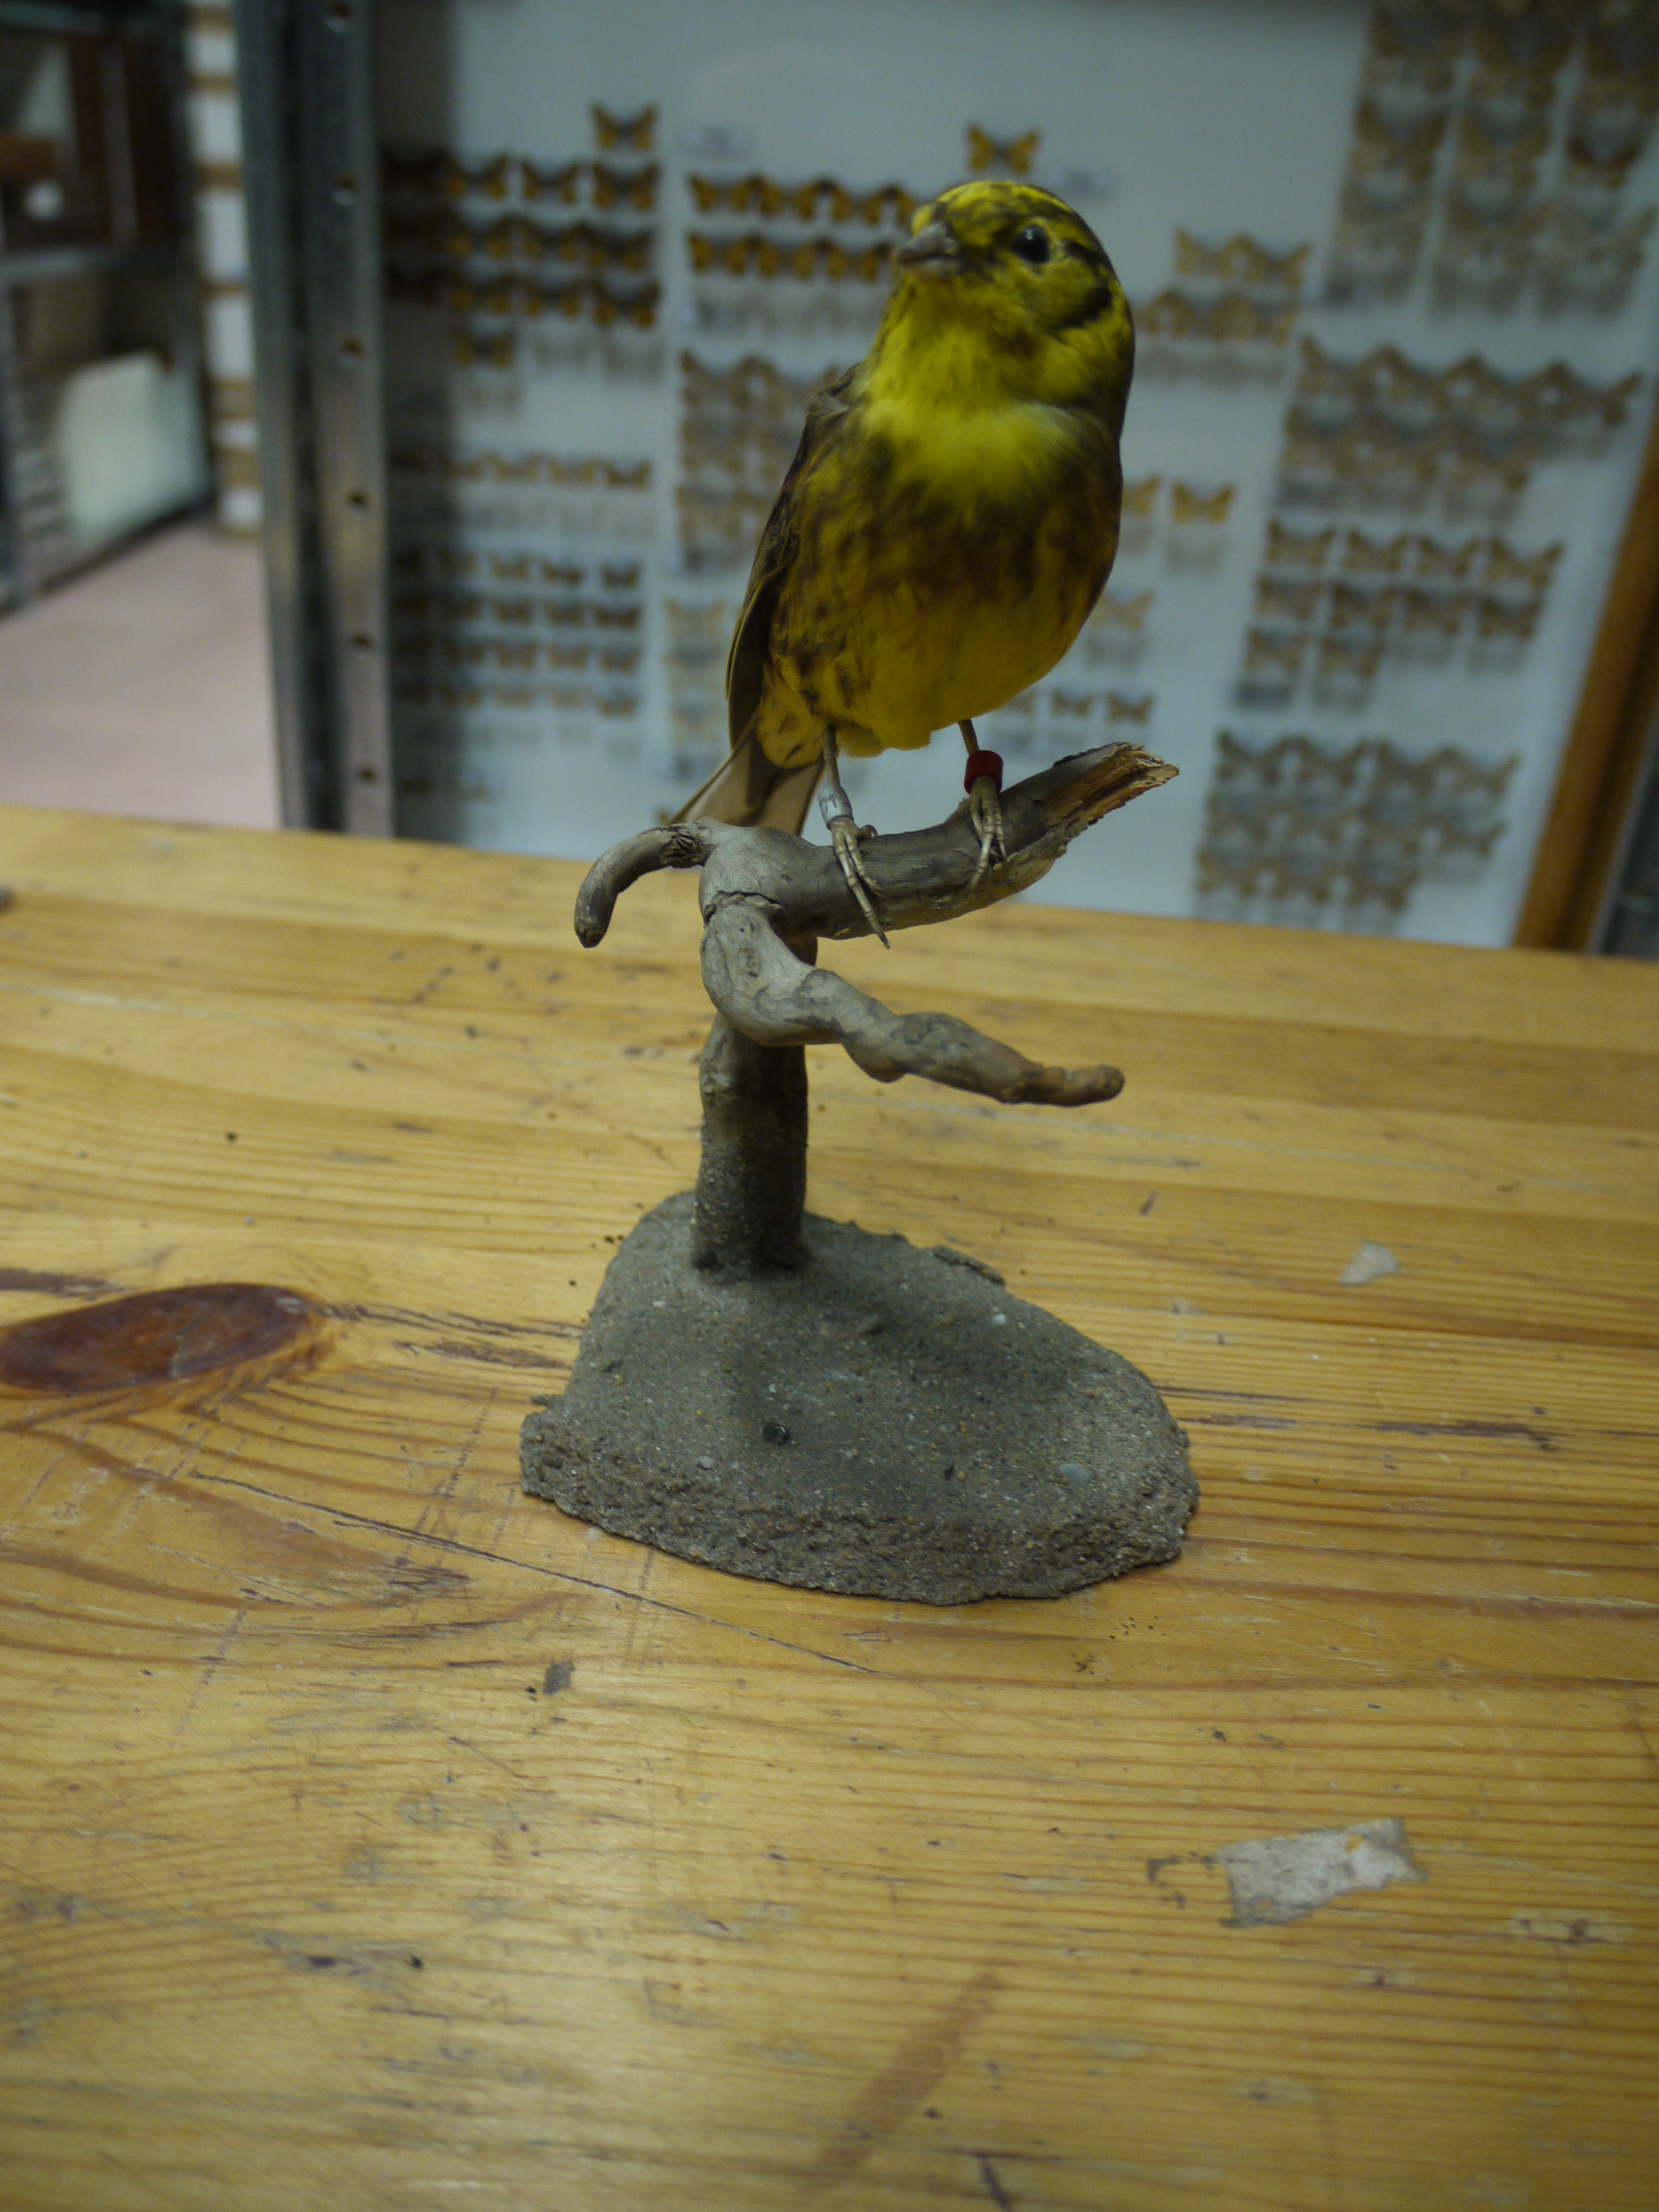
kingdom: Animalia
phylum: Chordata
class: Aves
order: Passeriformes
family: Emberizidae
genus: Emberiza
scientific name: Emberiza citrinella
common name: Yellowhammer
